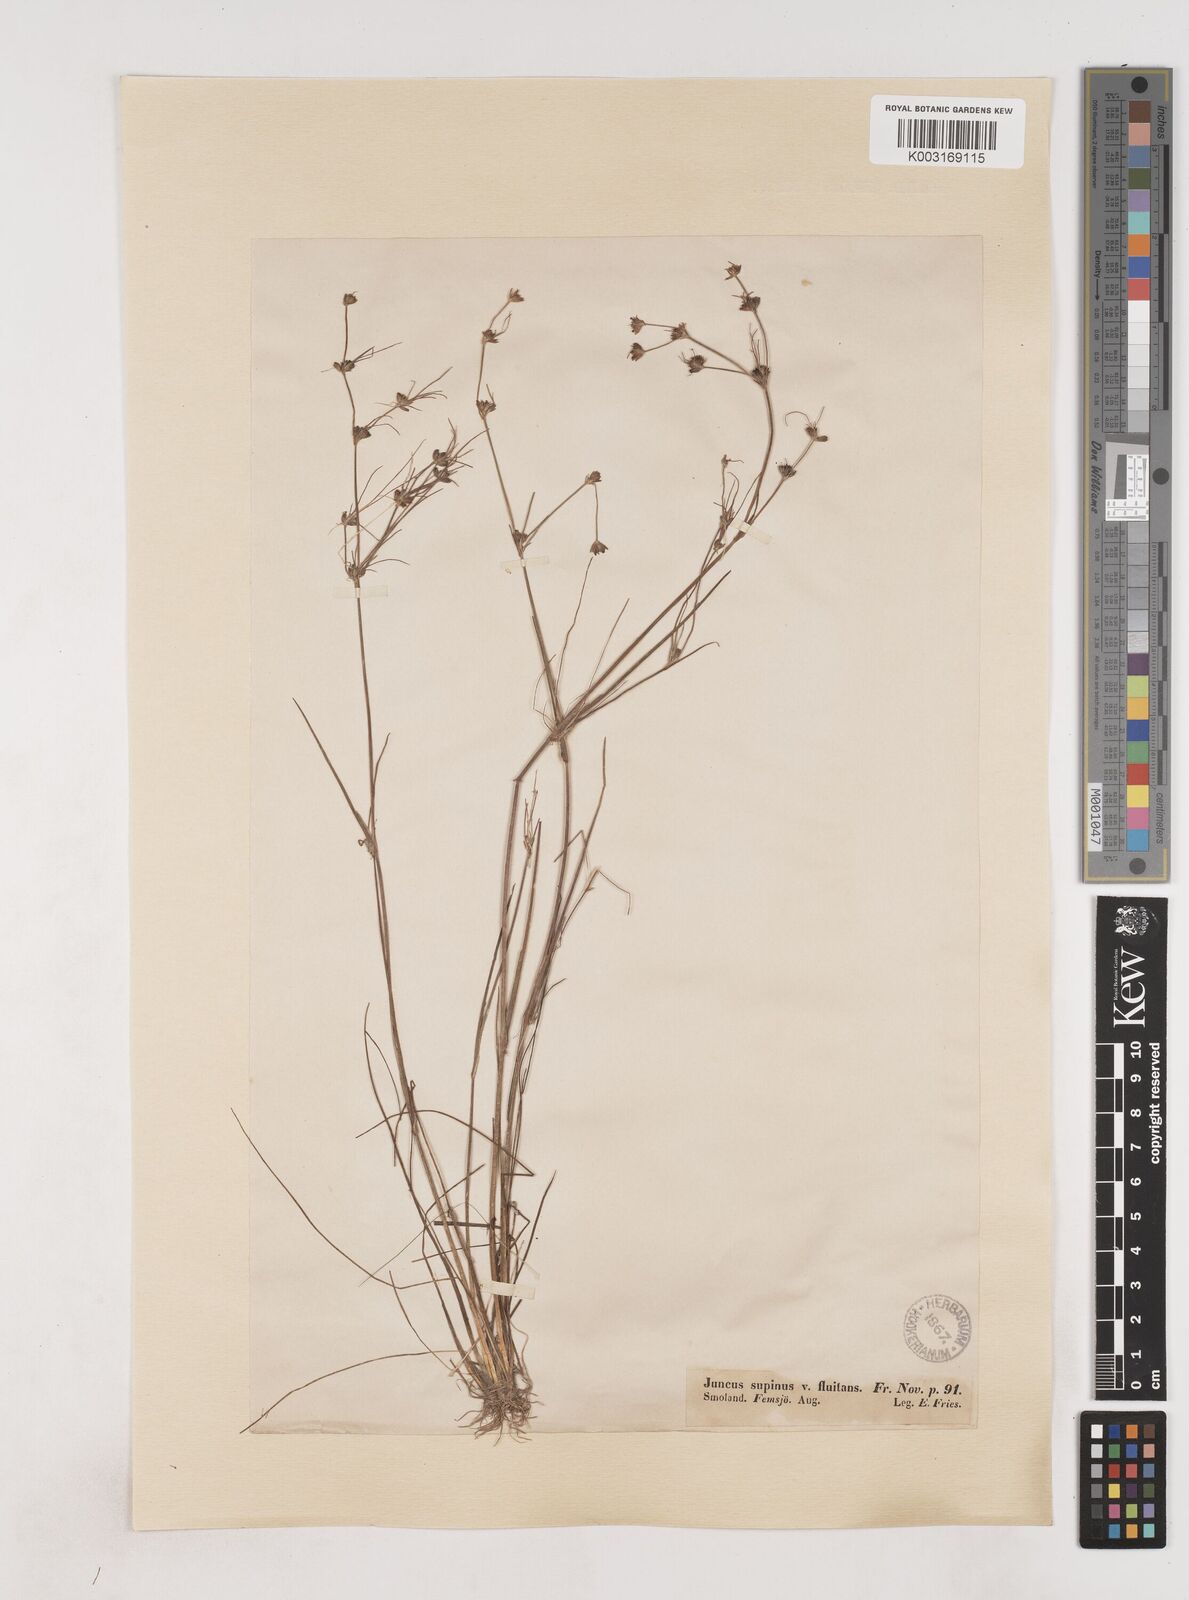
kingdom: Plantae
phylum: Tracheophyta
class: Liliopsida
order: Poales
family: Juncaceae
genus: Juncus
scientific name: Juncus bulbosus
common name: Bulbous rush
